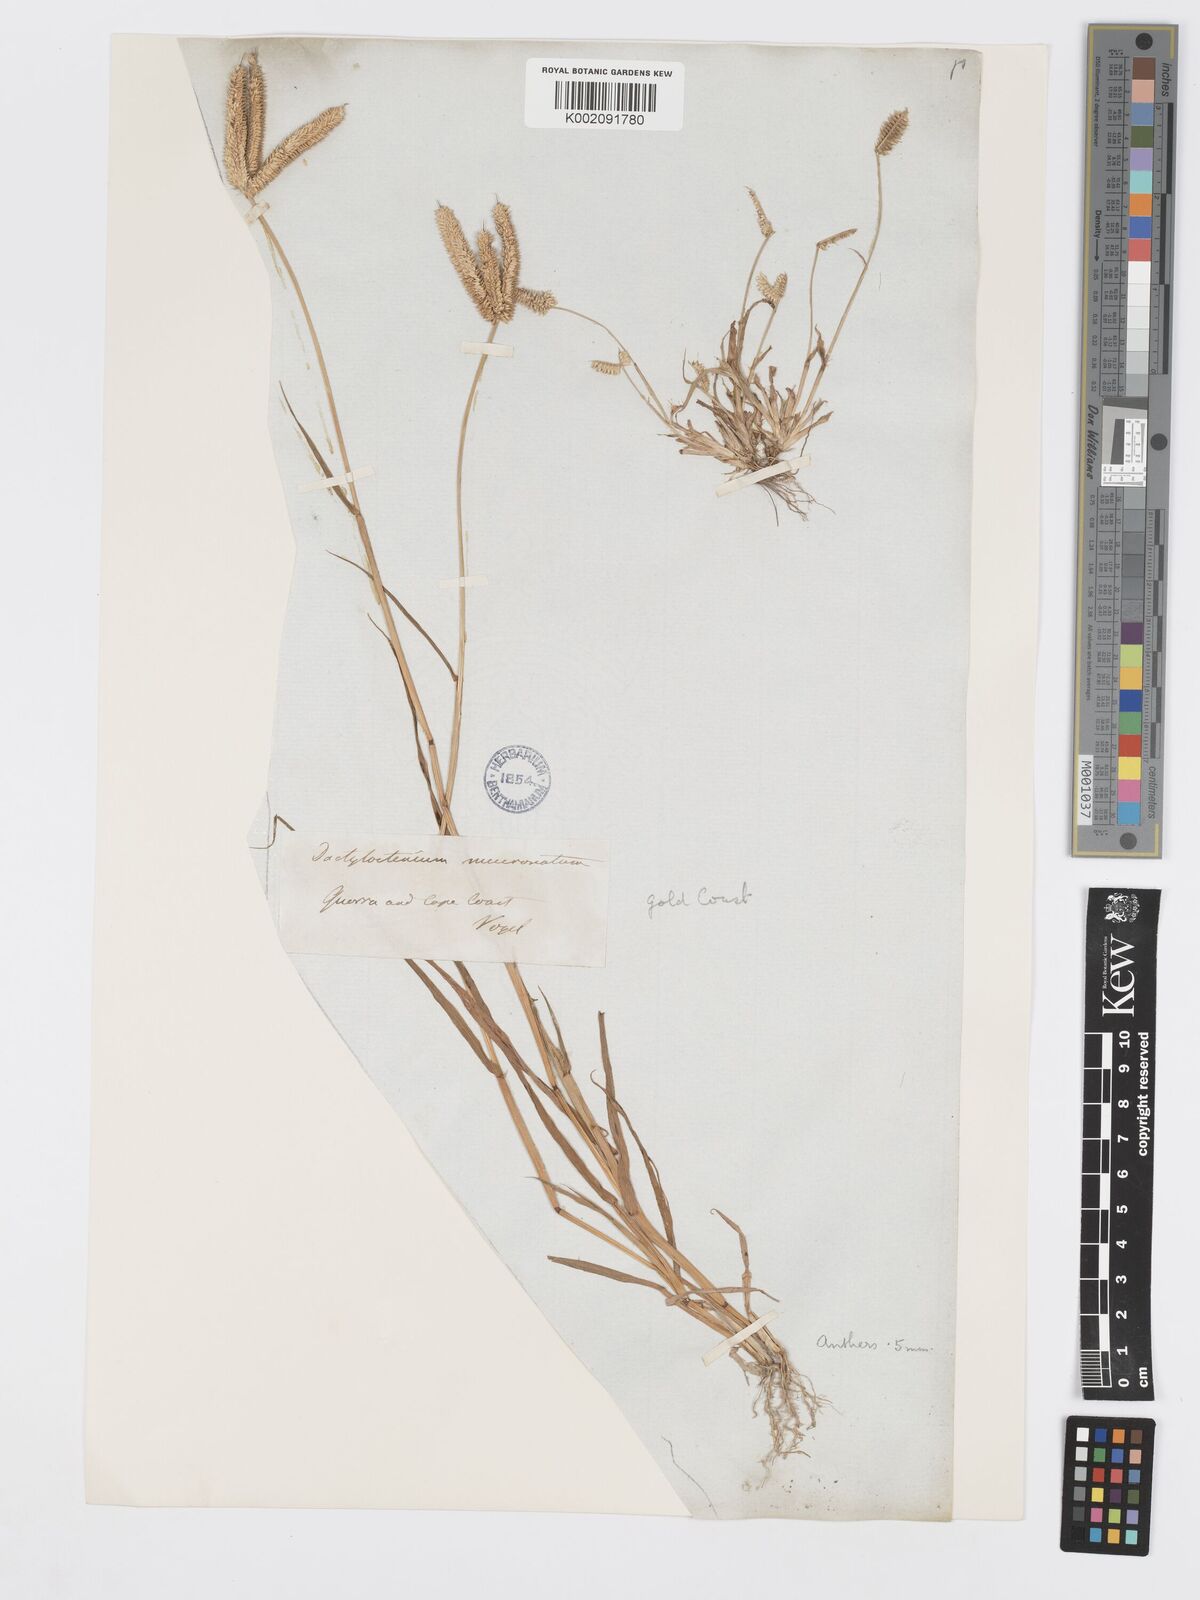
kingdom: Plantae
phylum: Tracheophyta
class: Liliopsida
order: Poales
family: Poaceae
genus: Dactyloctenium
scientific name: Dactyloctenium aegyptium
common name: Egyptian grass
